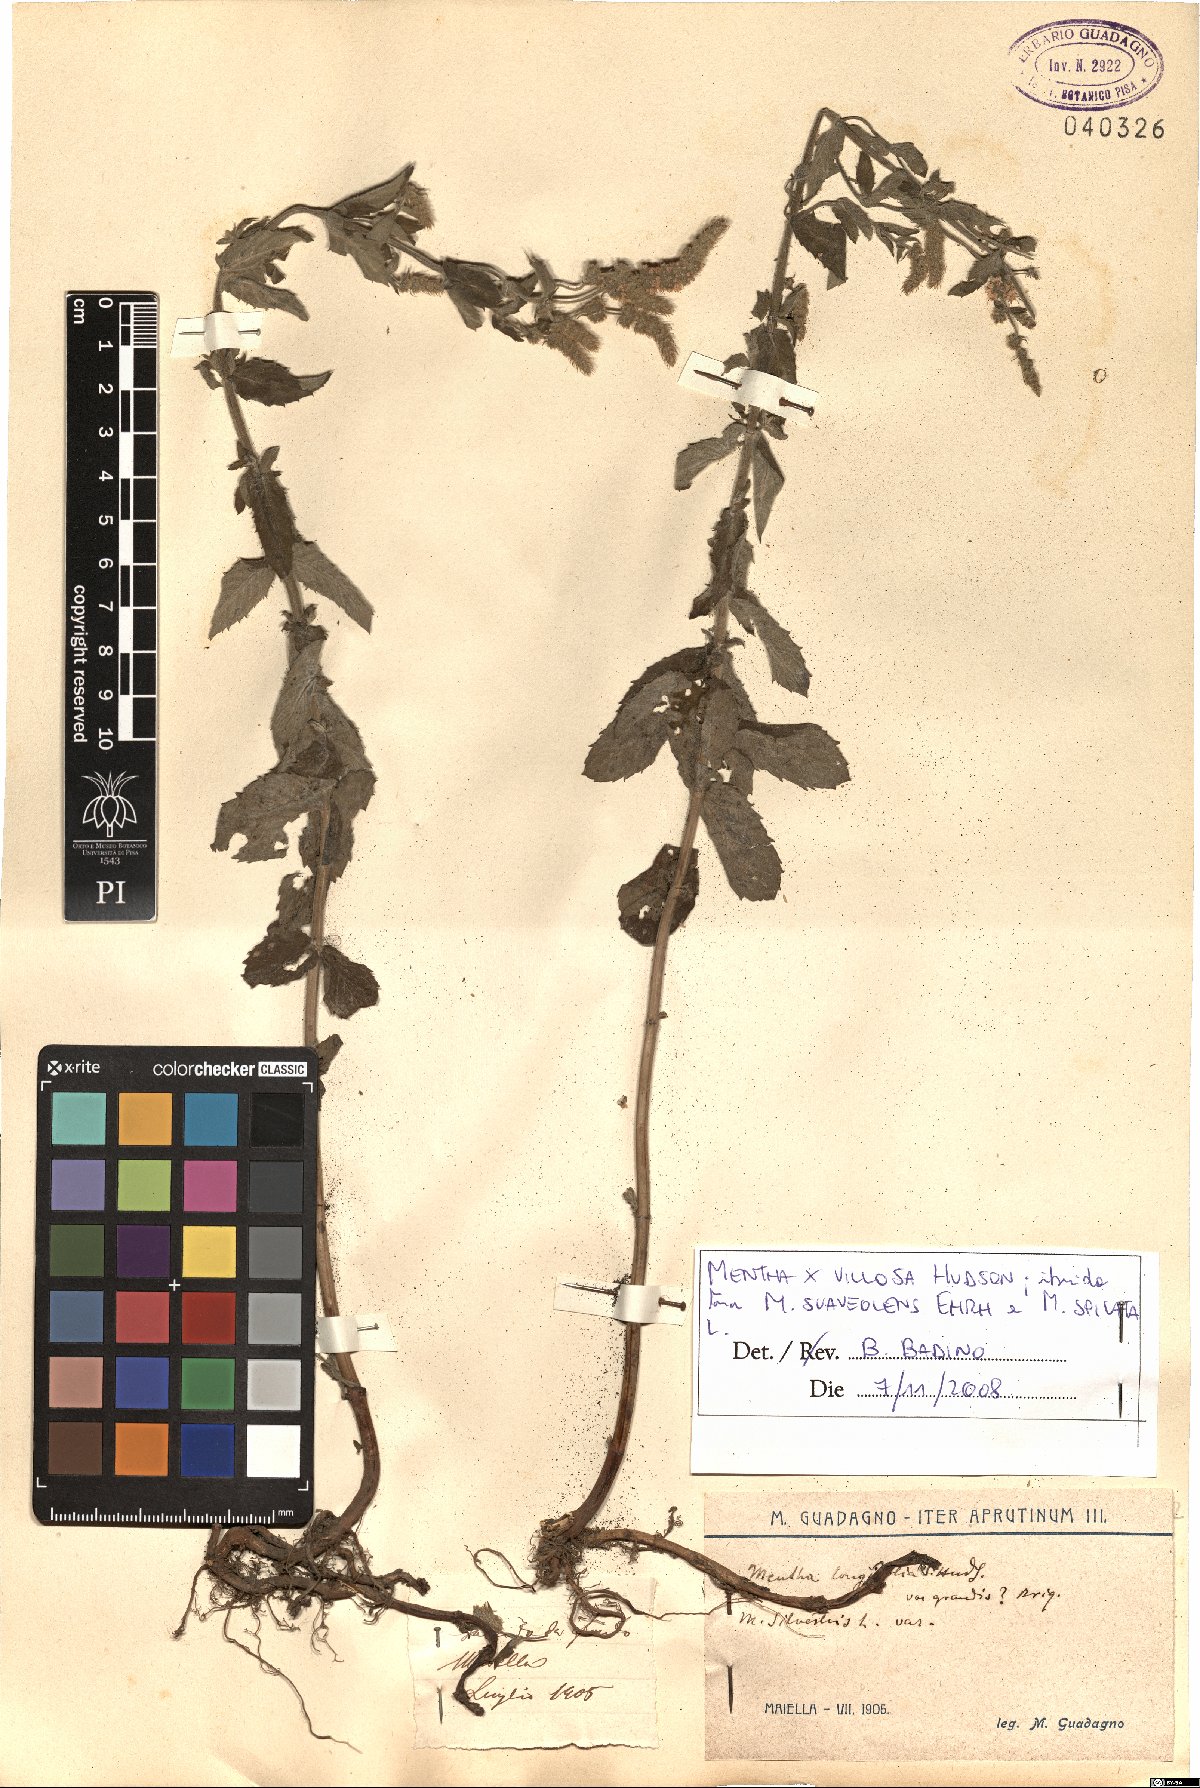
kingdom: Plantae
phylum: Tracheophyta
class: Magnoliopsida
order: Lamiales
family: Lamiaceae
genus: Mentha
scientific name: Mentha villosa
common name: Apple mint
